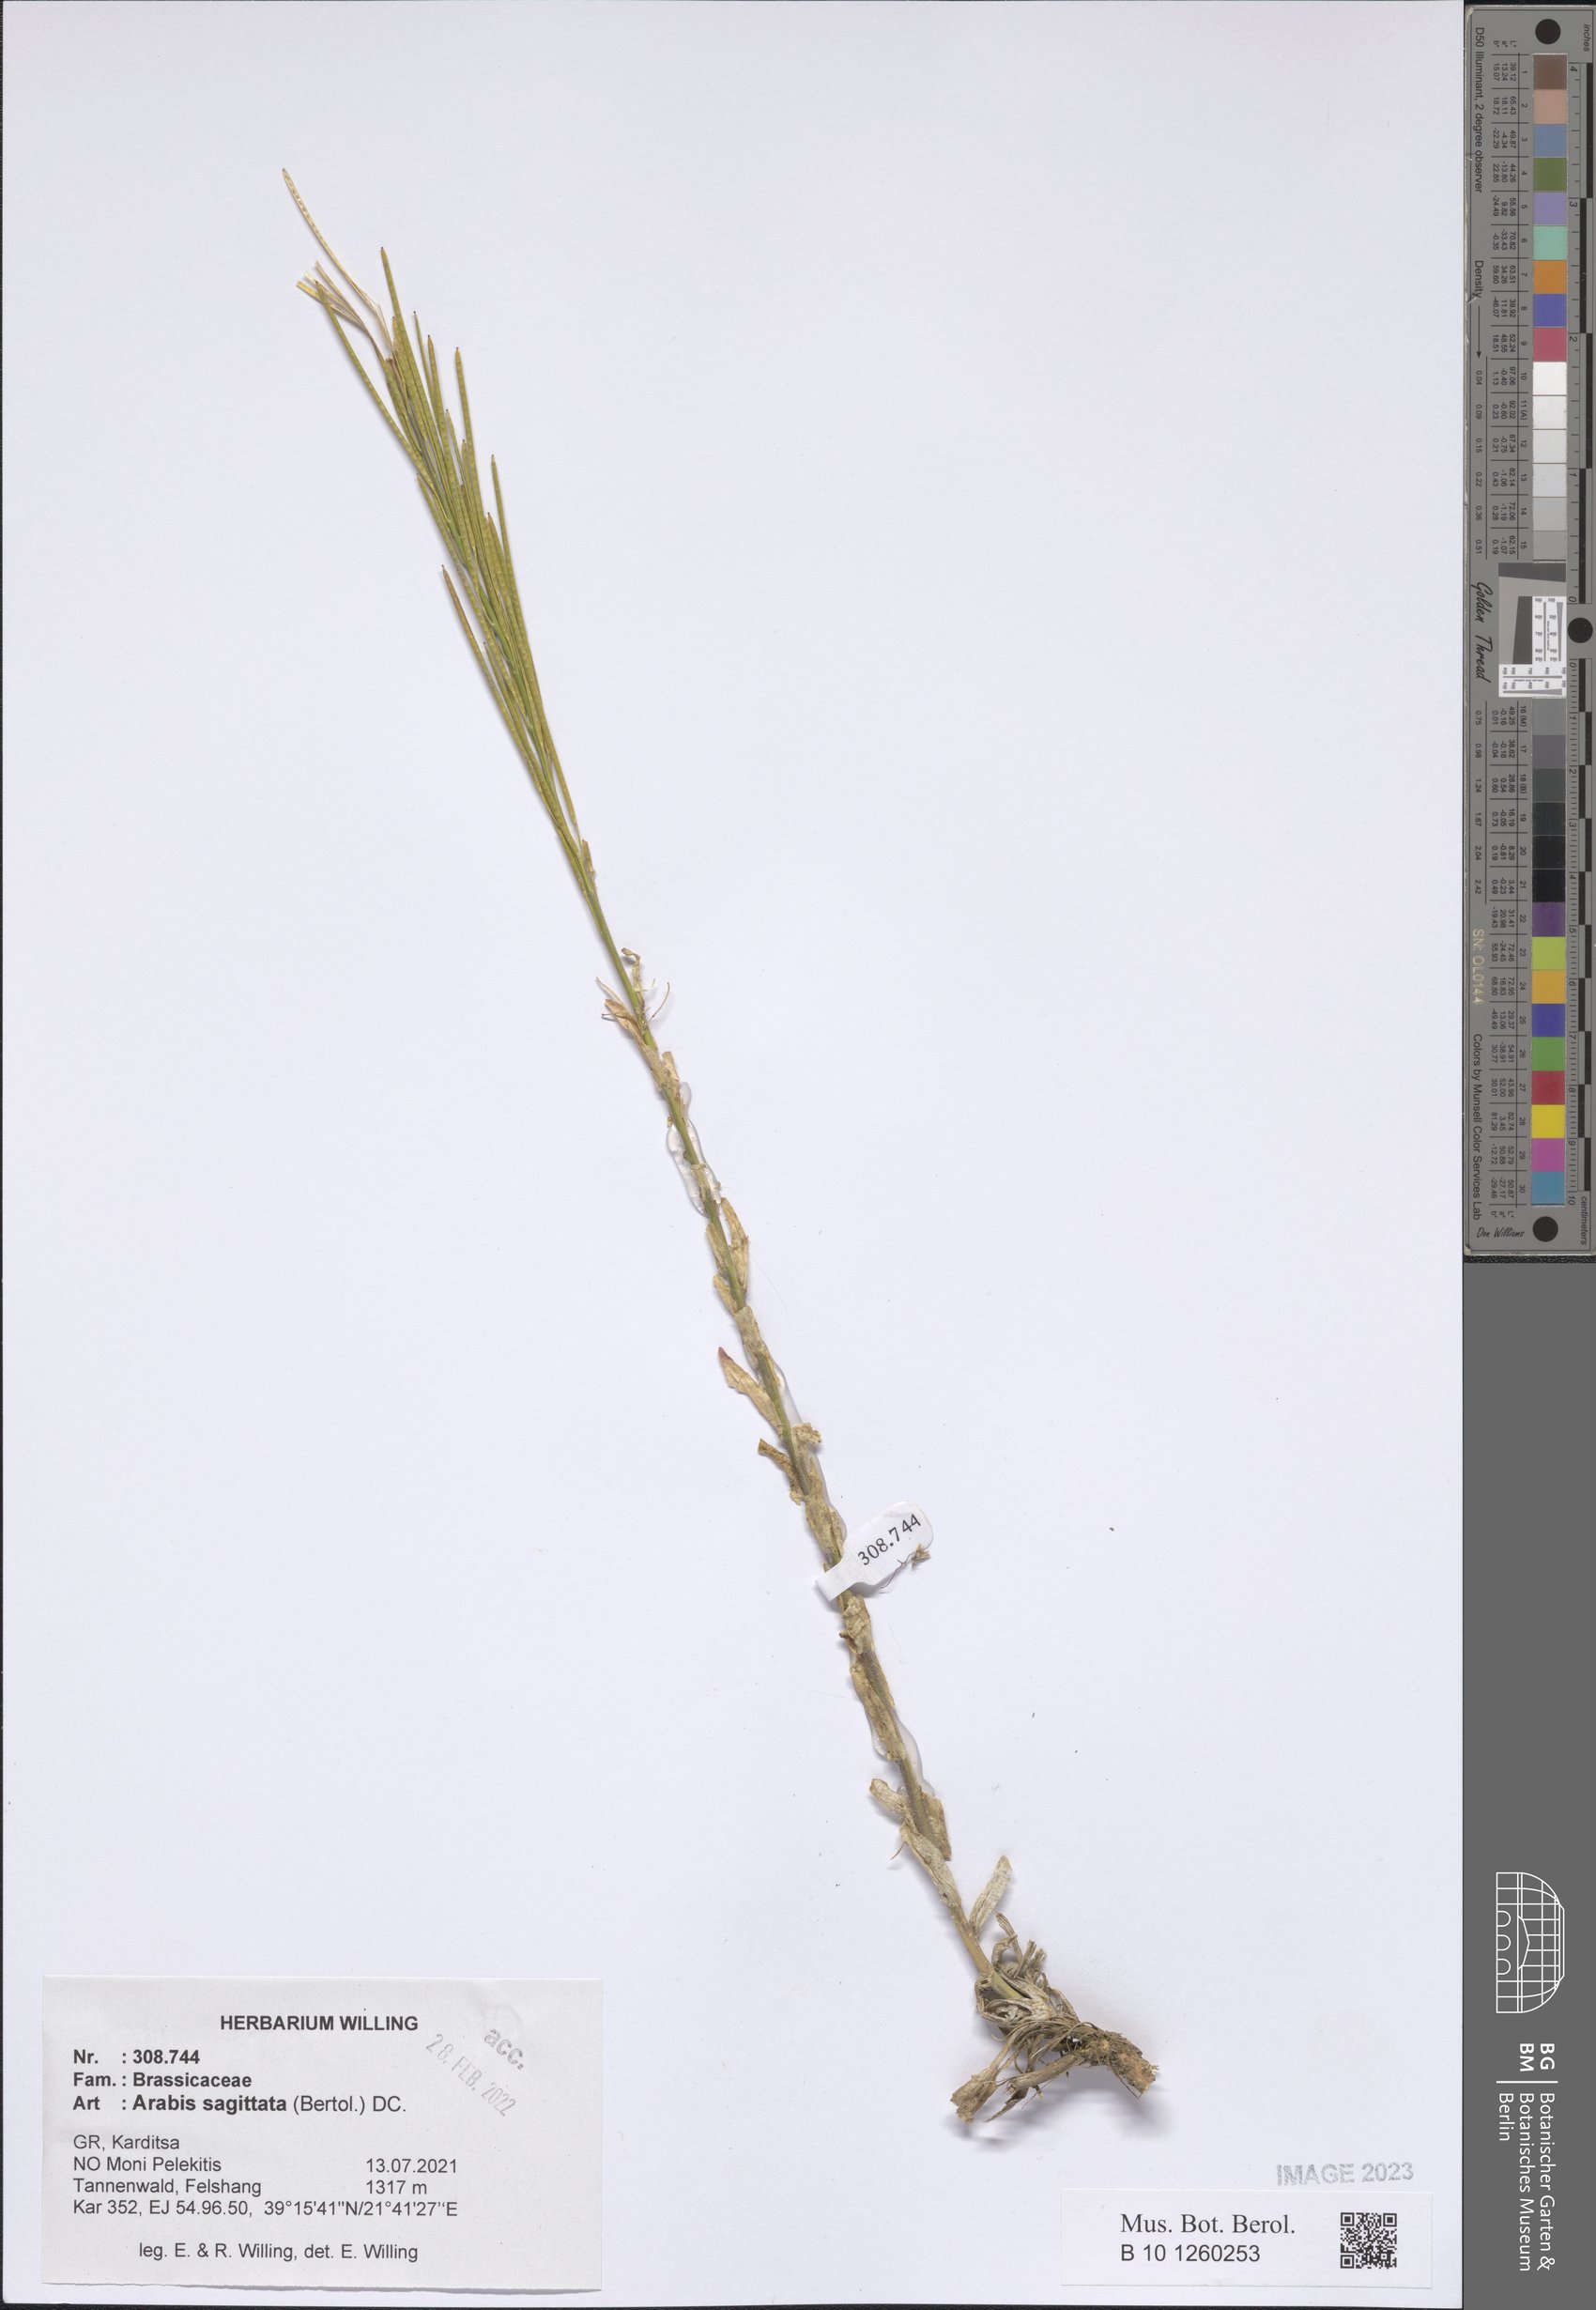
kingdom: Plantae
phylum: Tracheophyta
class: Magnoliopsida
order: Brassicales
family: Brassicaceae
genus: Arabis
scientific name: Arabis sagittata
